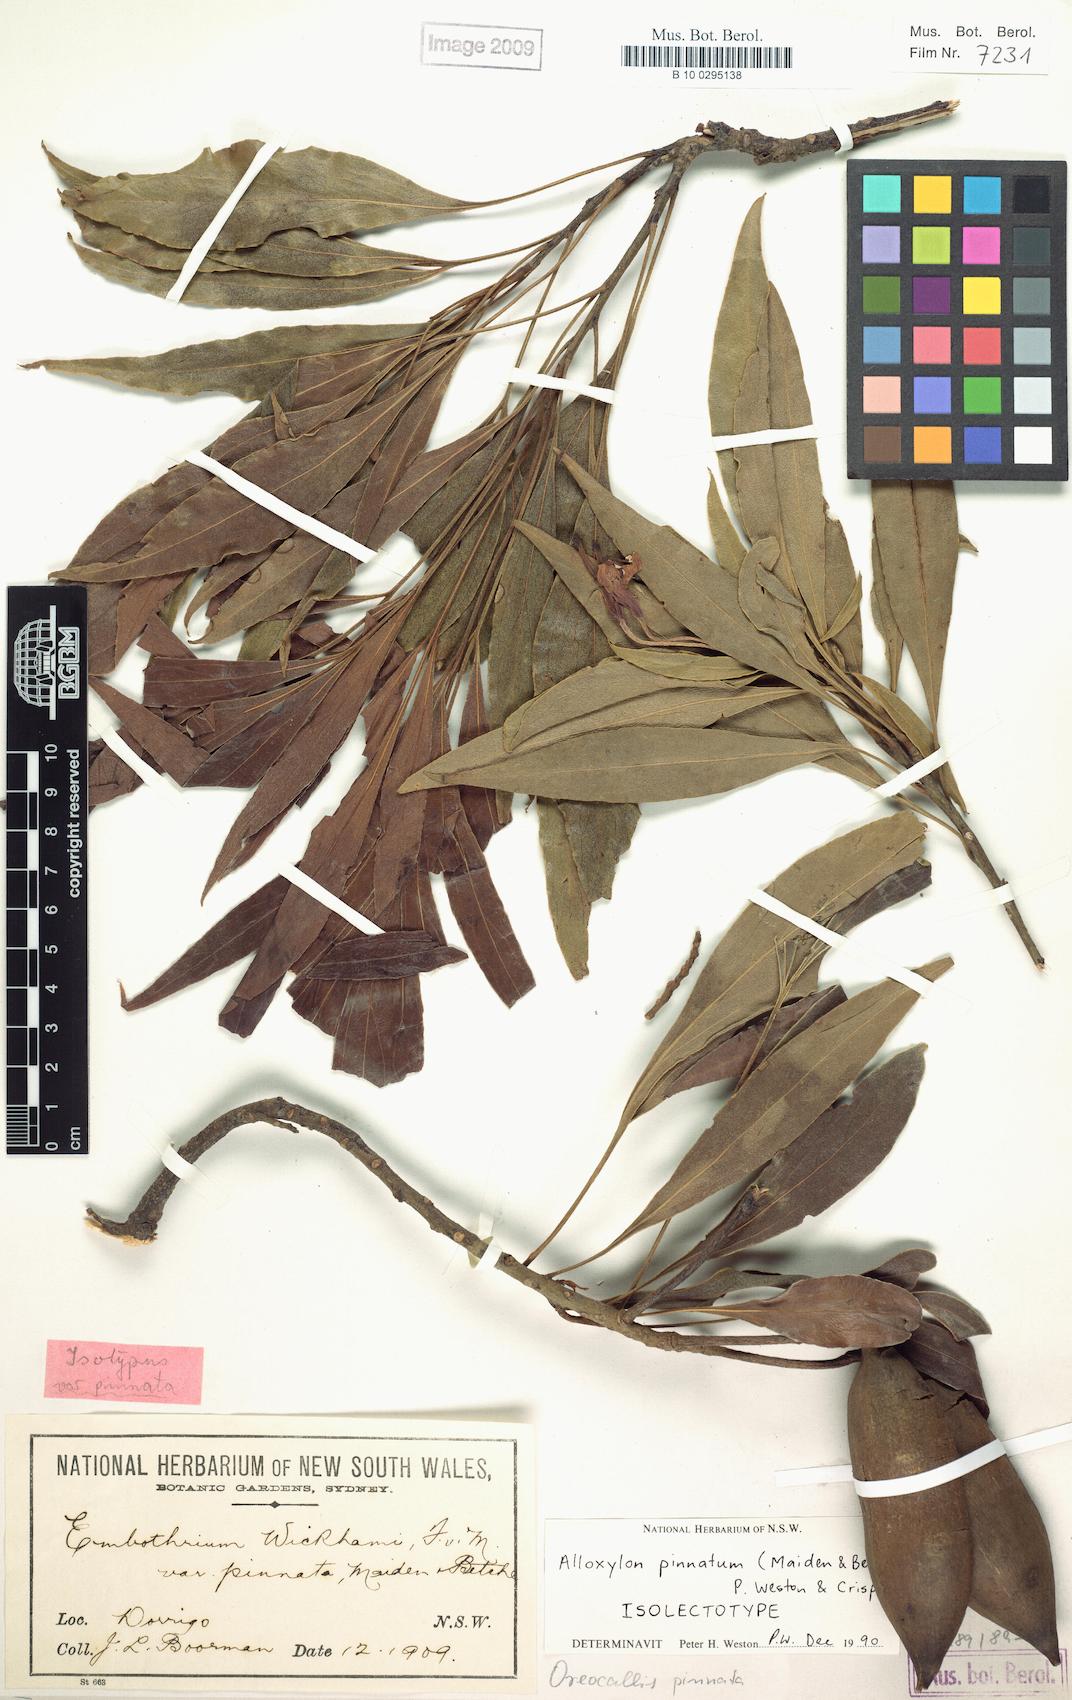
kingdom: Plantae
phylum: Tracheophyta
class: Magnoliopsida
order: Proteales
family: Proteaceae
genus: Alloxylon
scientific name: Alloxylon pinnatum
